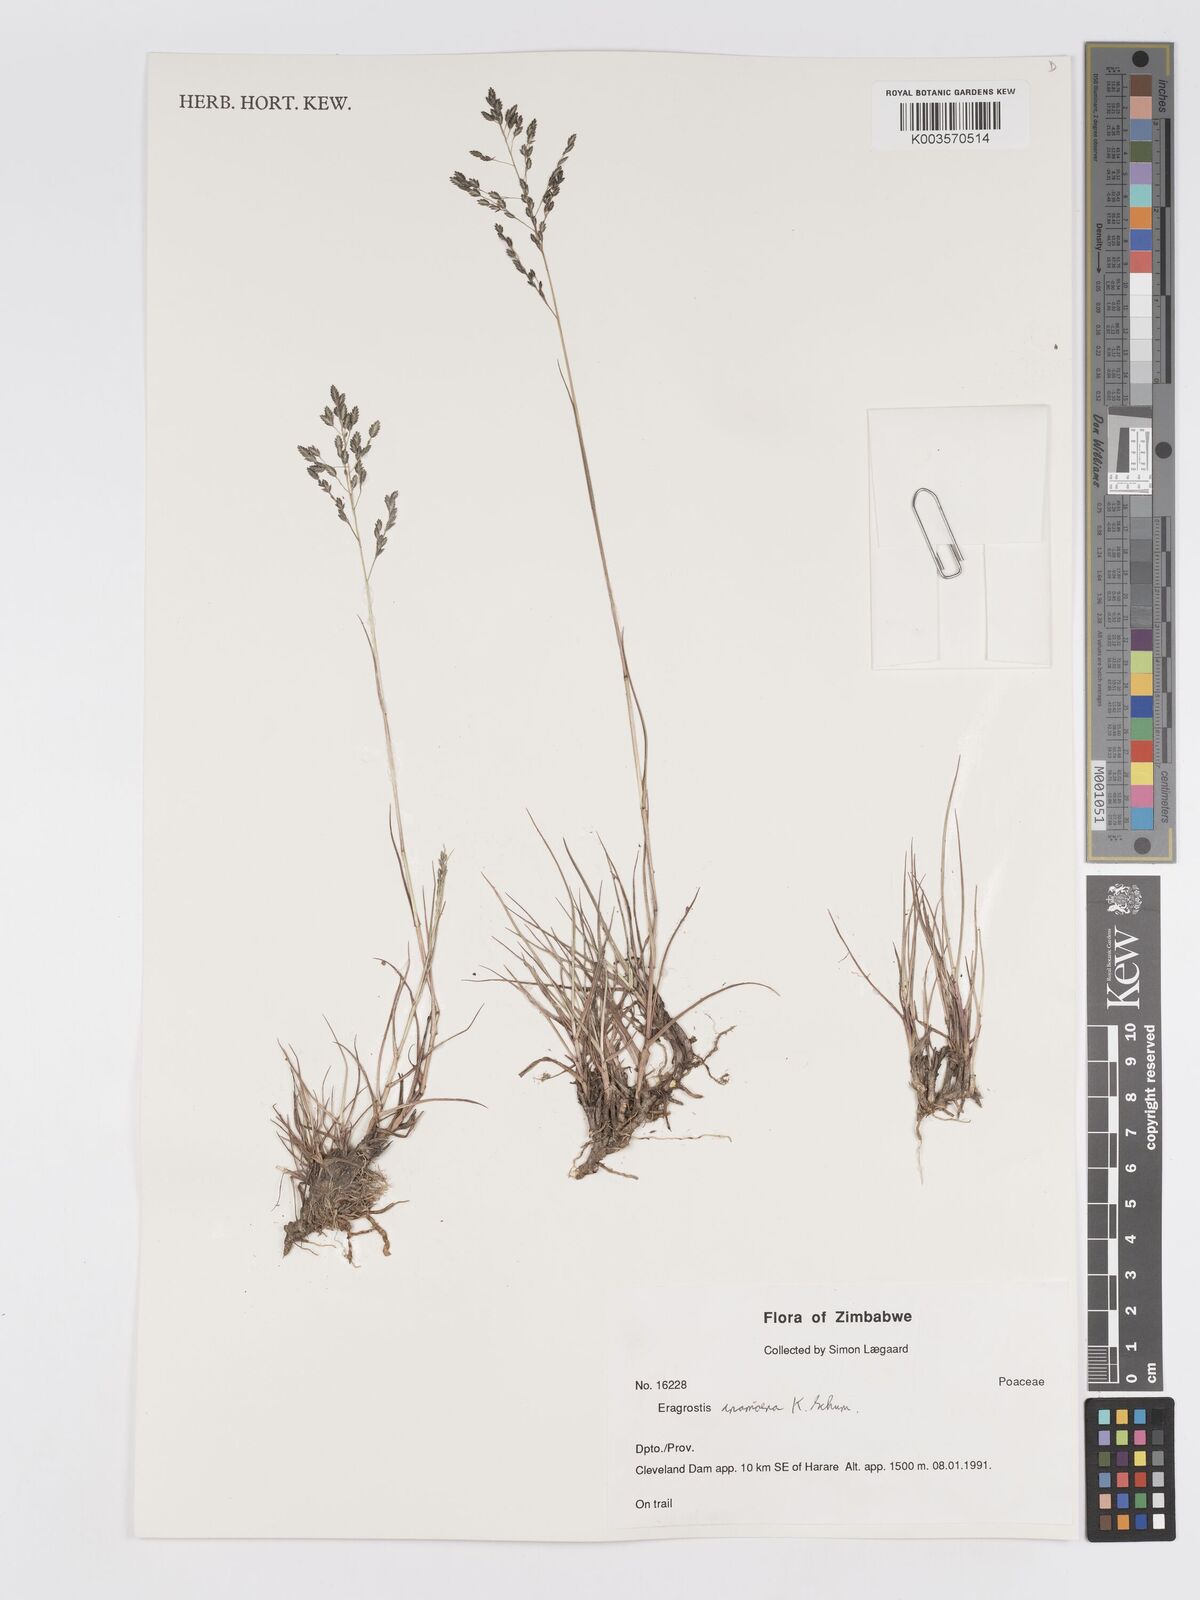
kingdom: Plantae
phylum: Tracheophyta
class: Liliopsida
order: Poales
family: Poaceae
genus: Eragrostis
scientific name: Eragrostis inamoena
